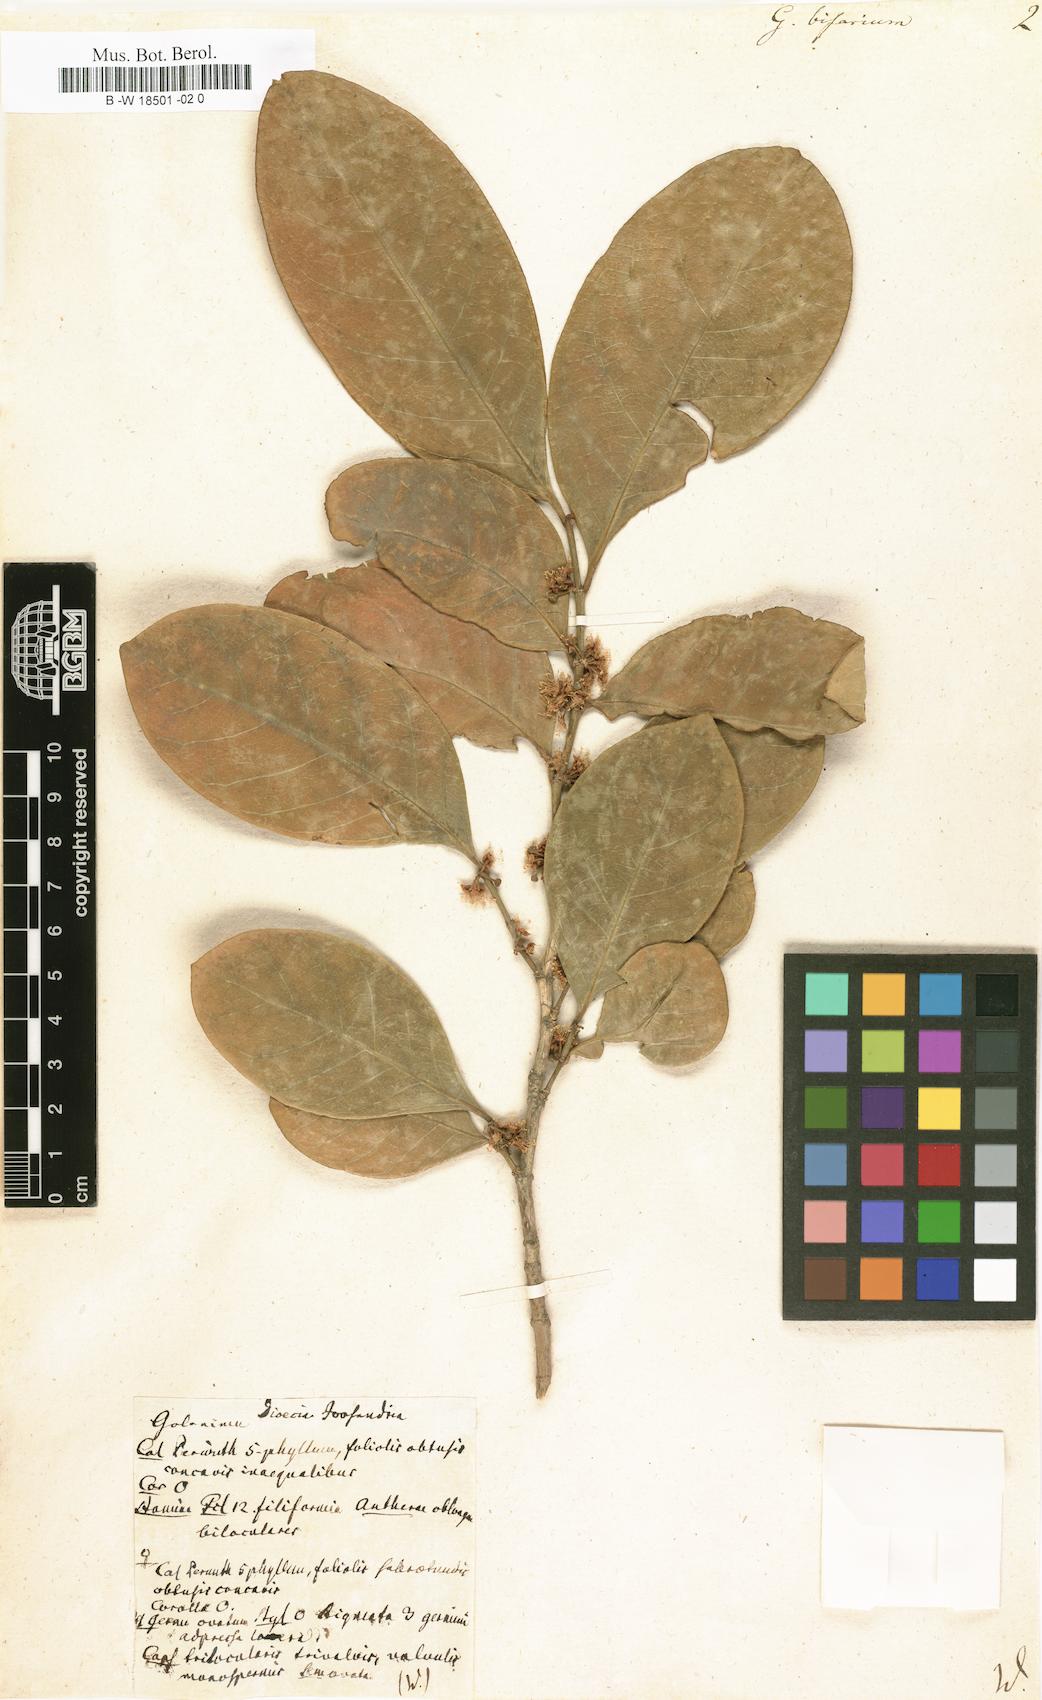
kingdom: Plantae
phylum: Tracheophyta
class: Magnoliopsida
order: Malpighiales
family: Euphorbiaceae
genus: Suregada
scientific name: Suregada bifaria
